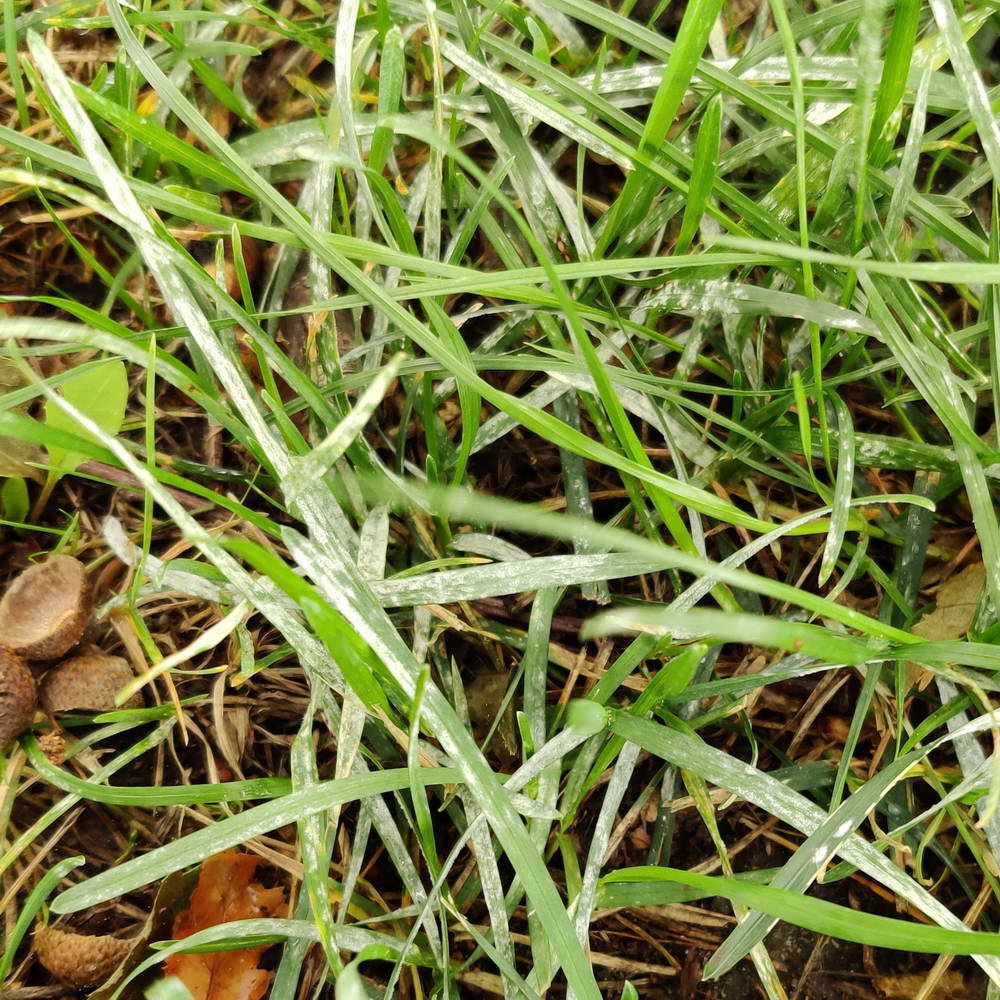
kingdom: Fungi
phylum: Ascomycota
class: Leotiomycetes
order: Helotiales
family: Erysiphaceae
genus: Blumeria
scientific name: Blumeria graminis
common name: græs-meldug
